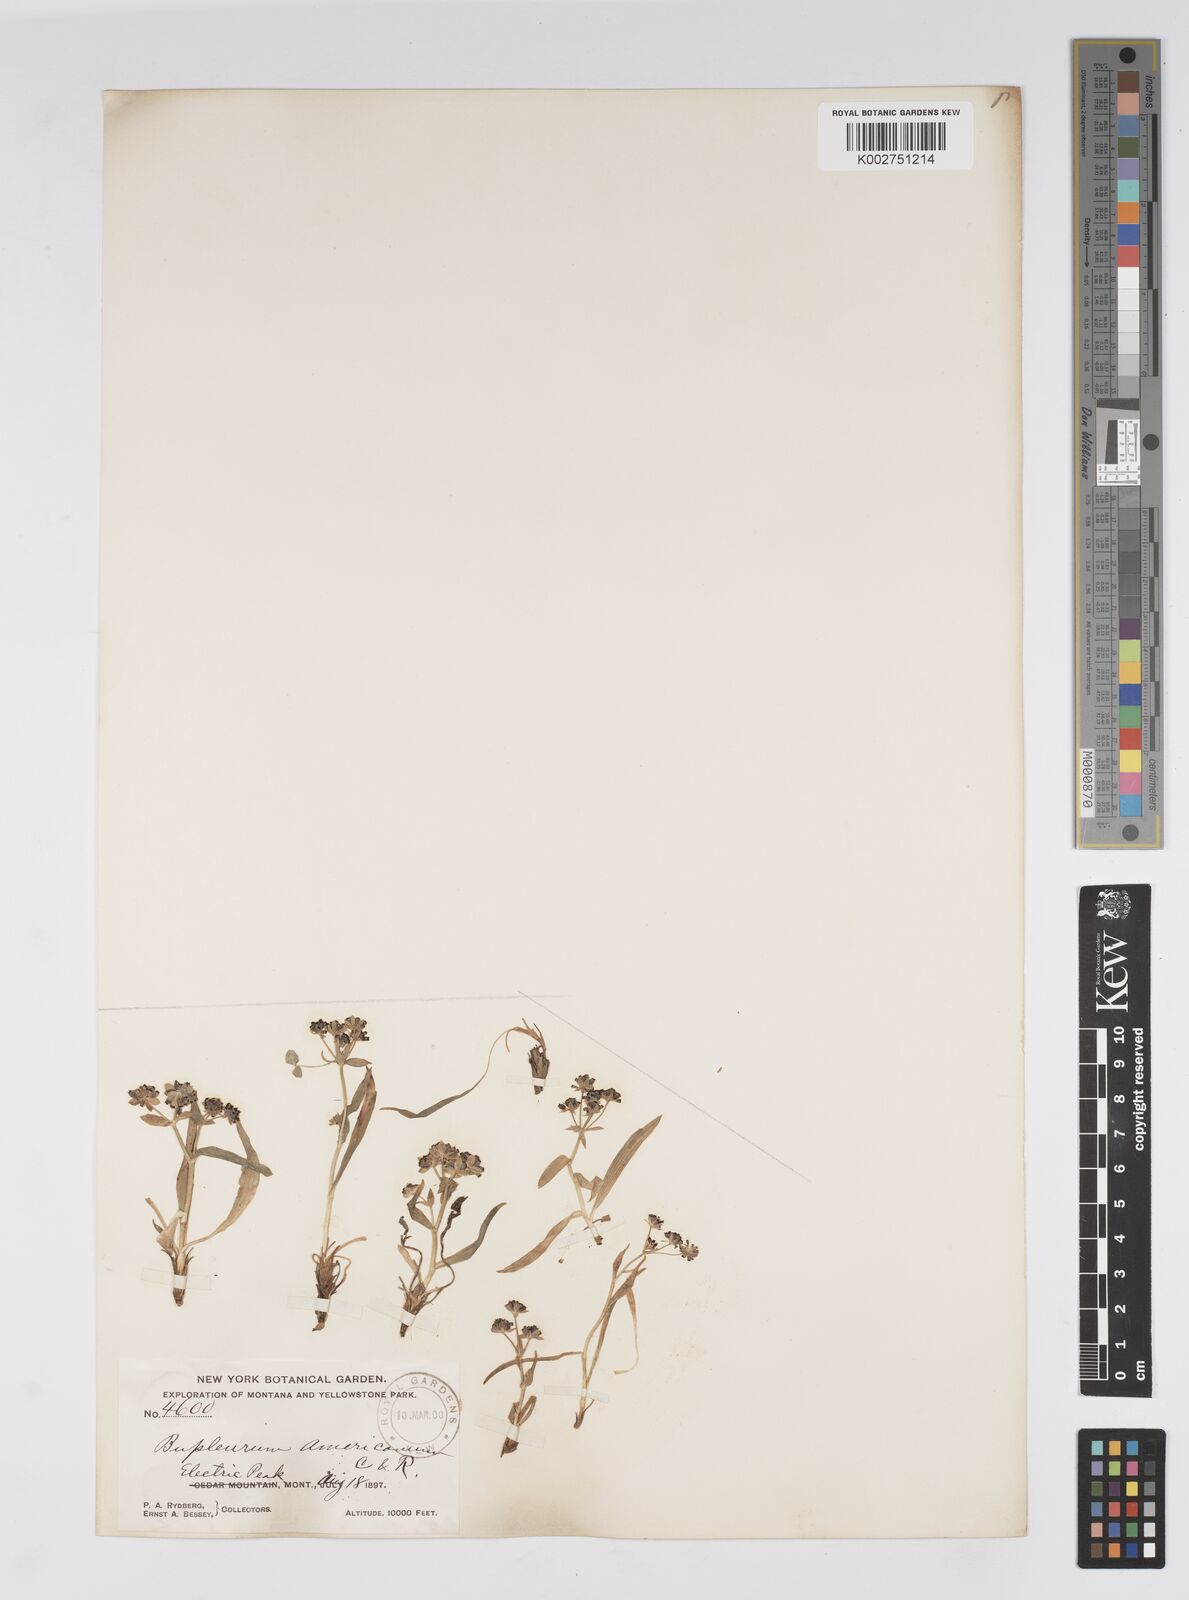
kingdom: Plantae
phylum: Tracheophyta
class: Magnoliopsida
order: Apiales
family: Apiaceae
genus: Bupleurum
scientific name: Bupleurum americanum
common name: American thoroughwax
